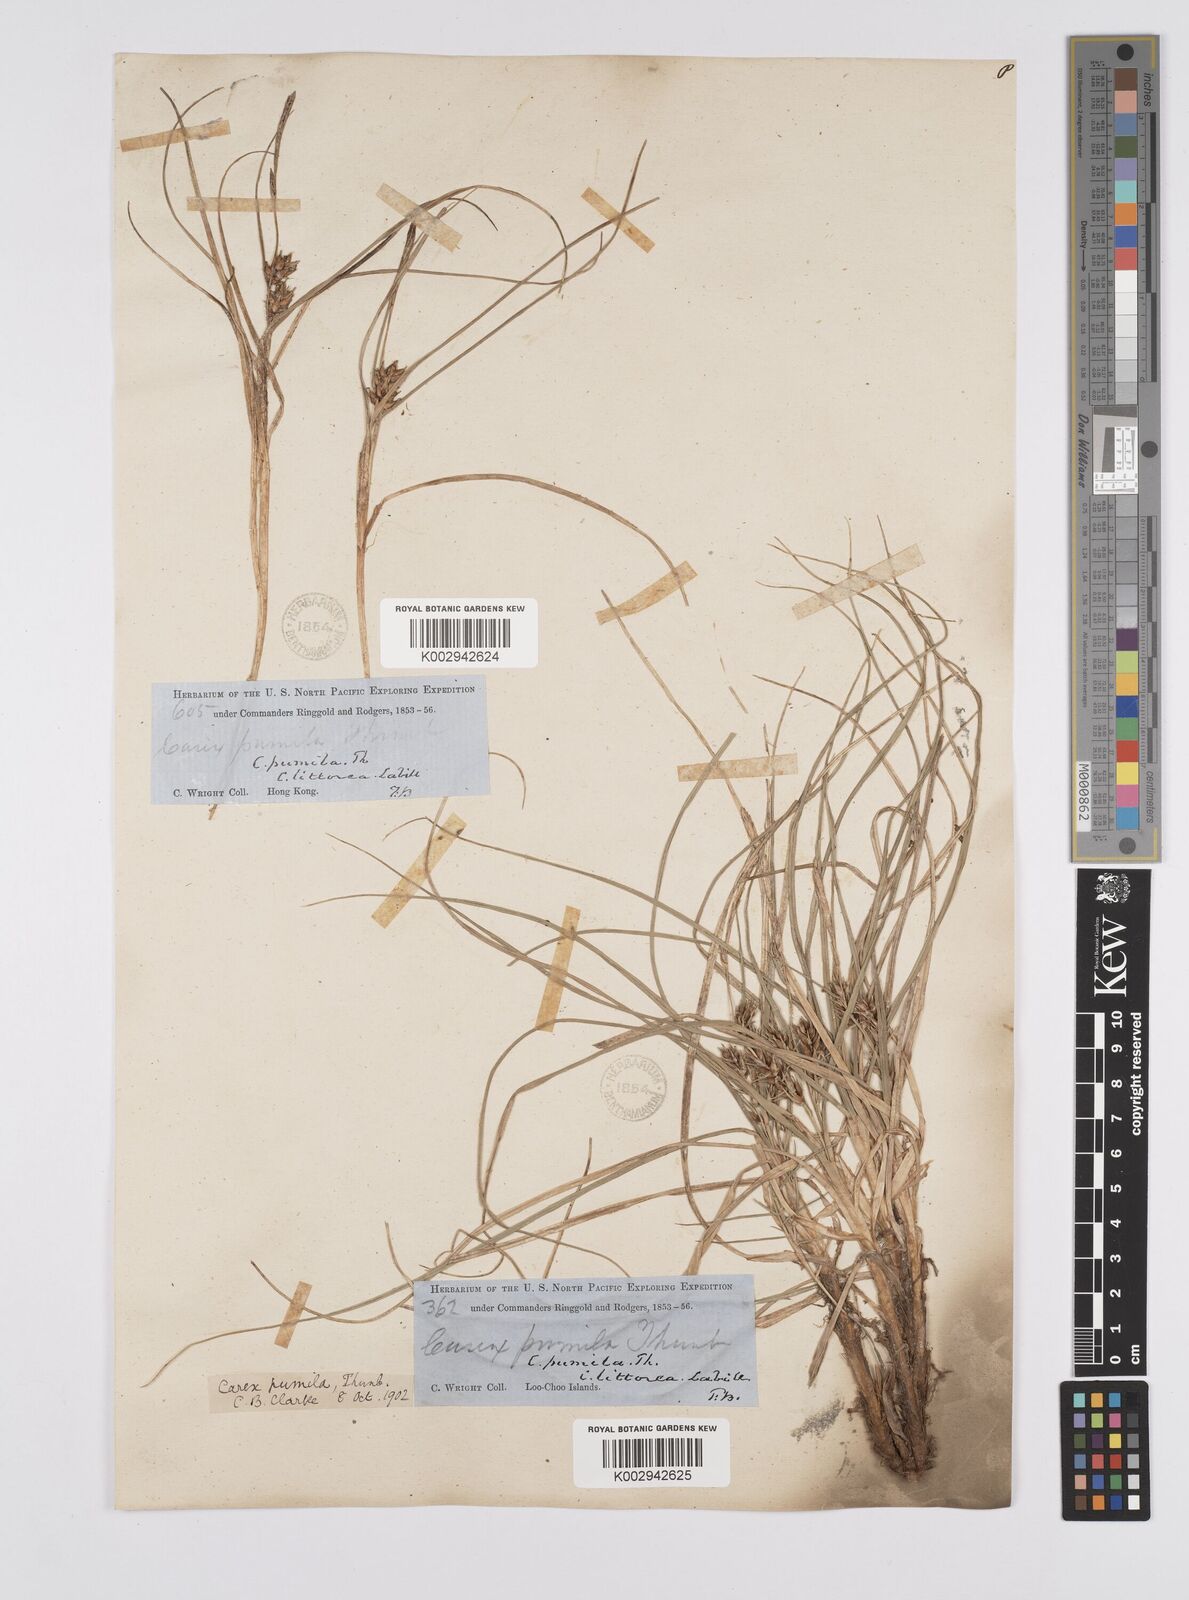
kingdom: Plantae
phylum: Tracheophyta
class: Liliopsida
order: Poales
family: Cyperaceae
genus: Carex
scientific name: Carex pumila
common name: Dwarf sedge
